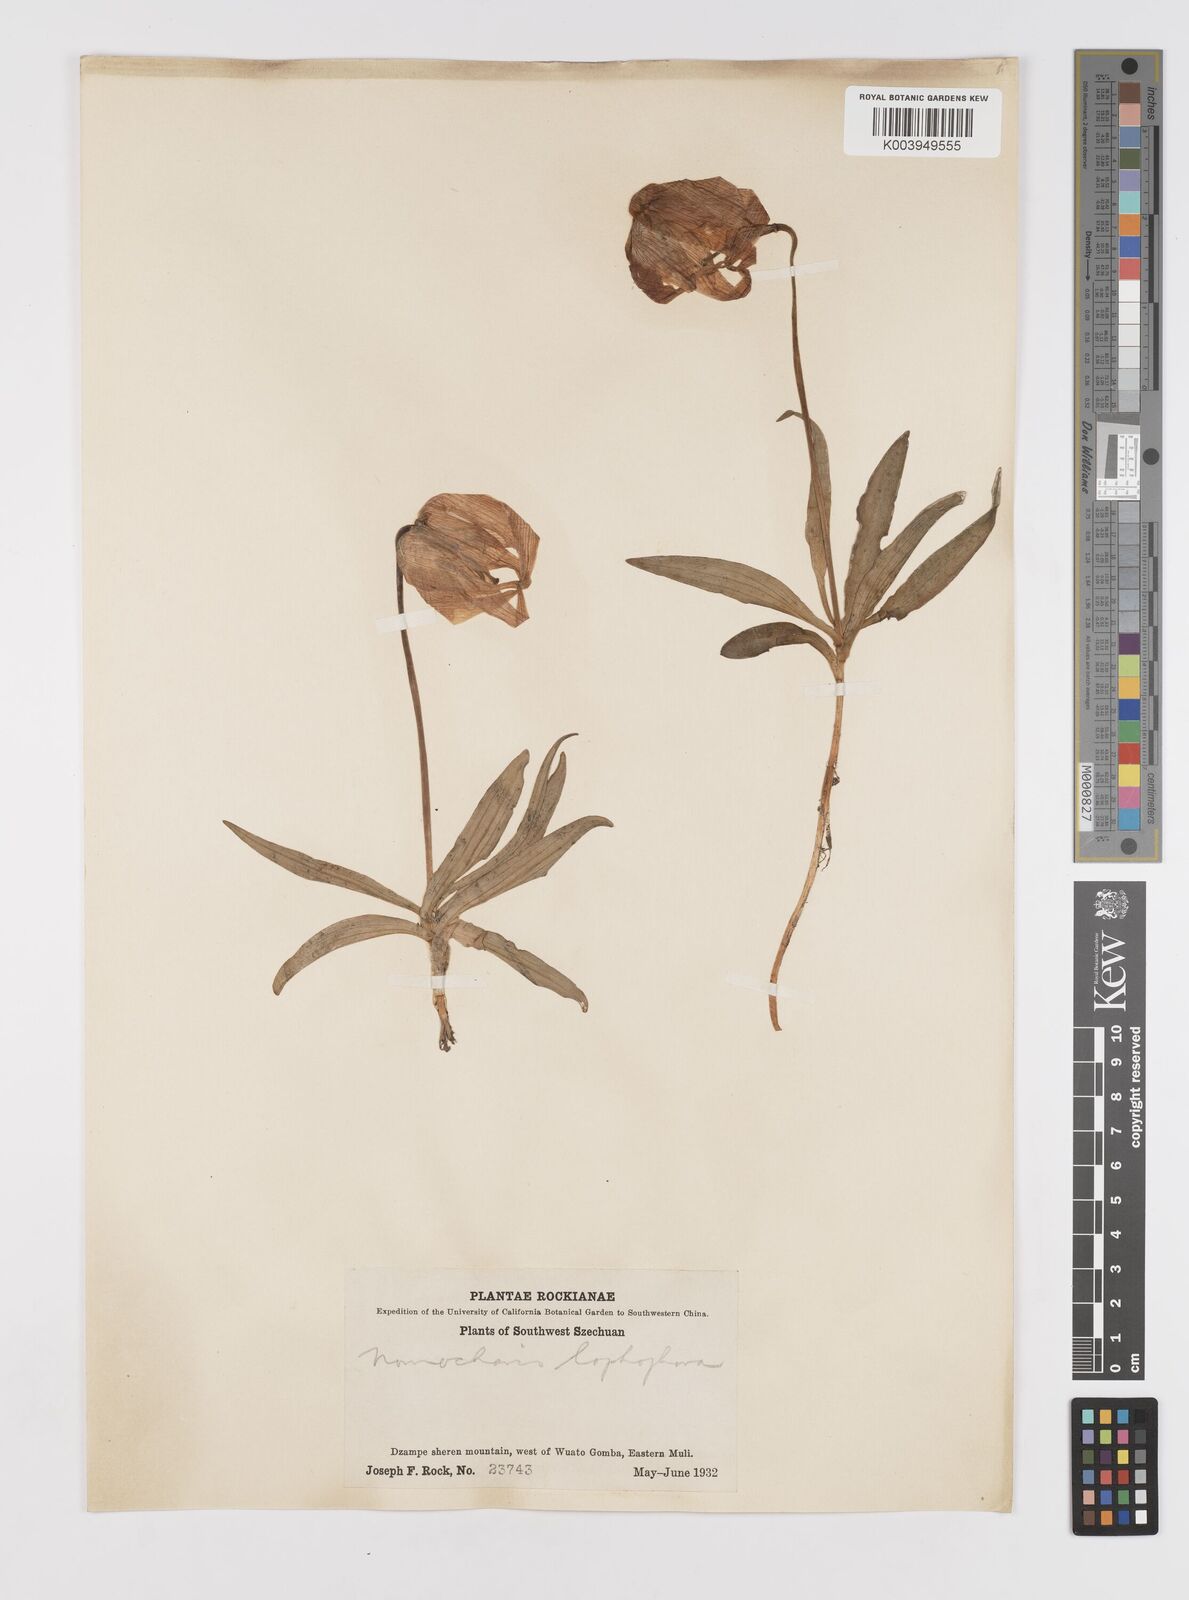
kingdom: Plantae
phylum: Tracheophyta
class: Liliopsida
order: Liliales
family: Liliaceae
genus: Lilium
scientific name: Lilium lophophorum
